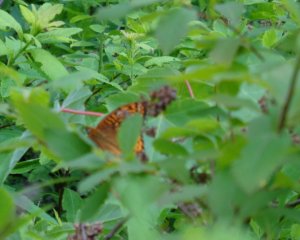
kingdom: Animalia
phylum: Arthropoda
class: Insecta
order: Lepidoptera
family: Nymphalidae
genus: Speyeria
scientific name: Speyeria atlantis
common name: Atlantis Fritillary
